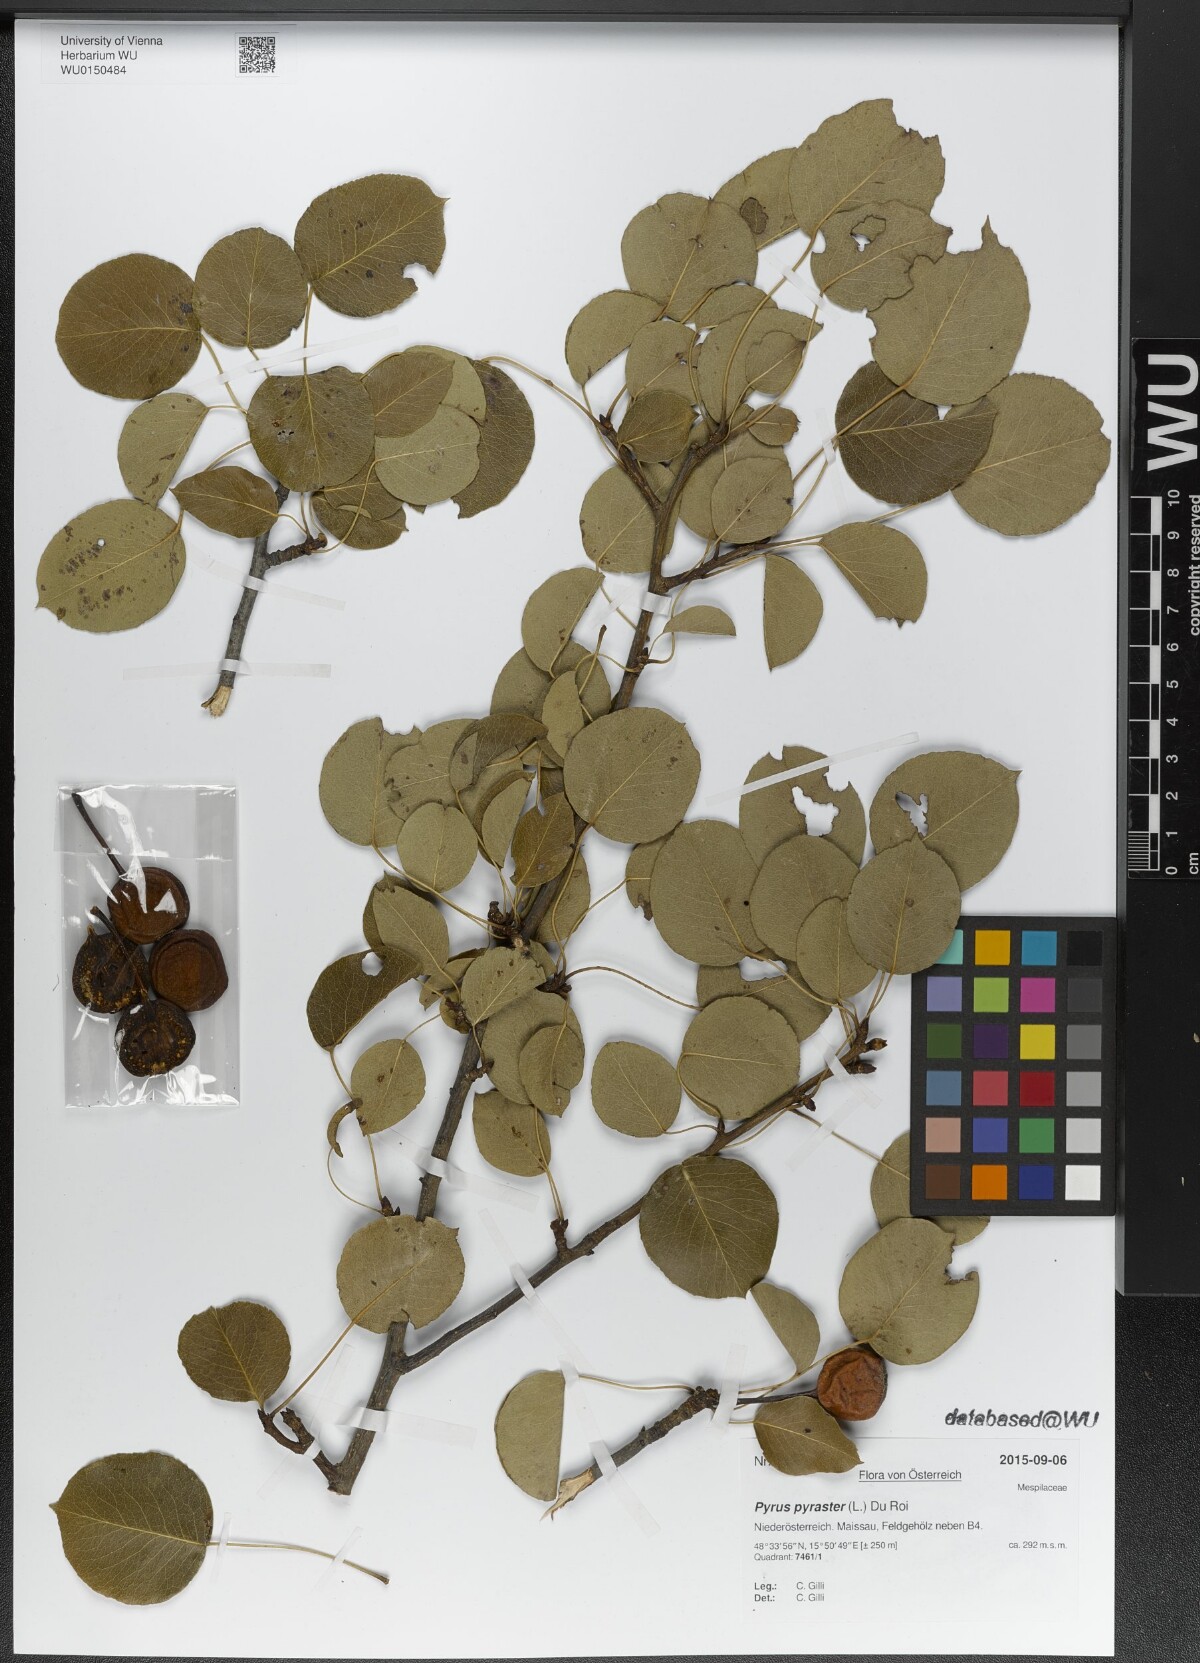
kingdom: Plantae
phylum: Tracheophyta
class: Magnoliopsida
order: Rosales
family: Rosaceae
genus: Pyrus
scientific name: Pyrus pyraster
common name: Wild pear
